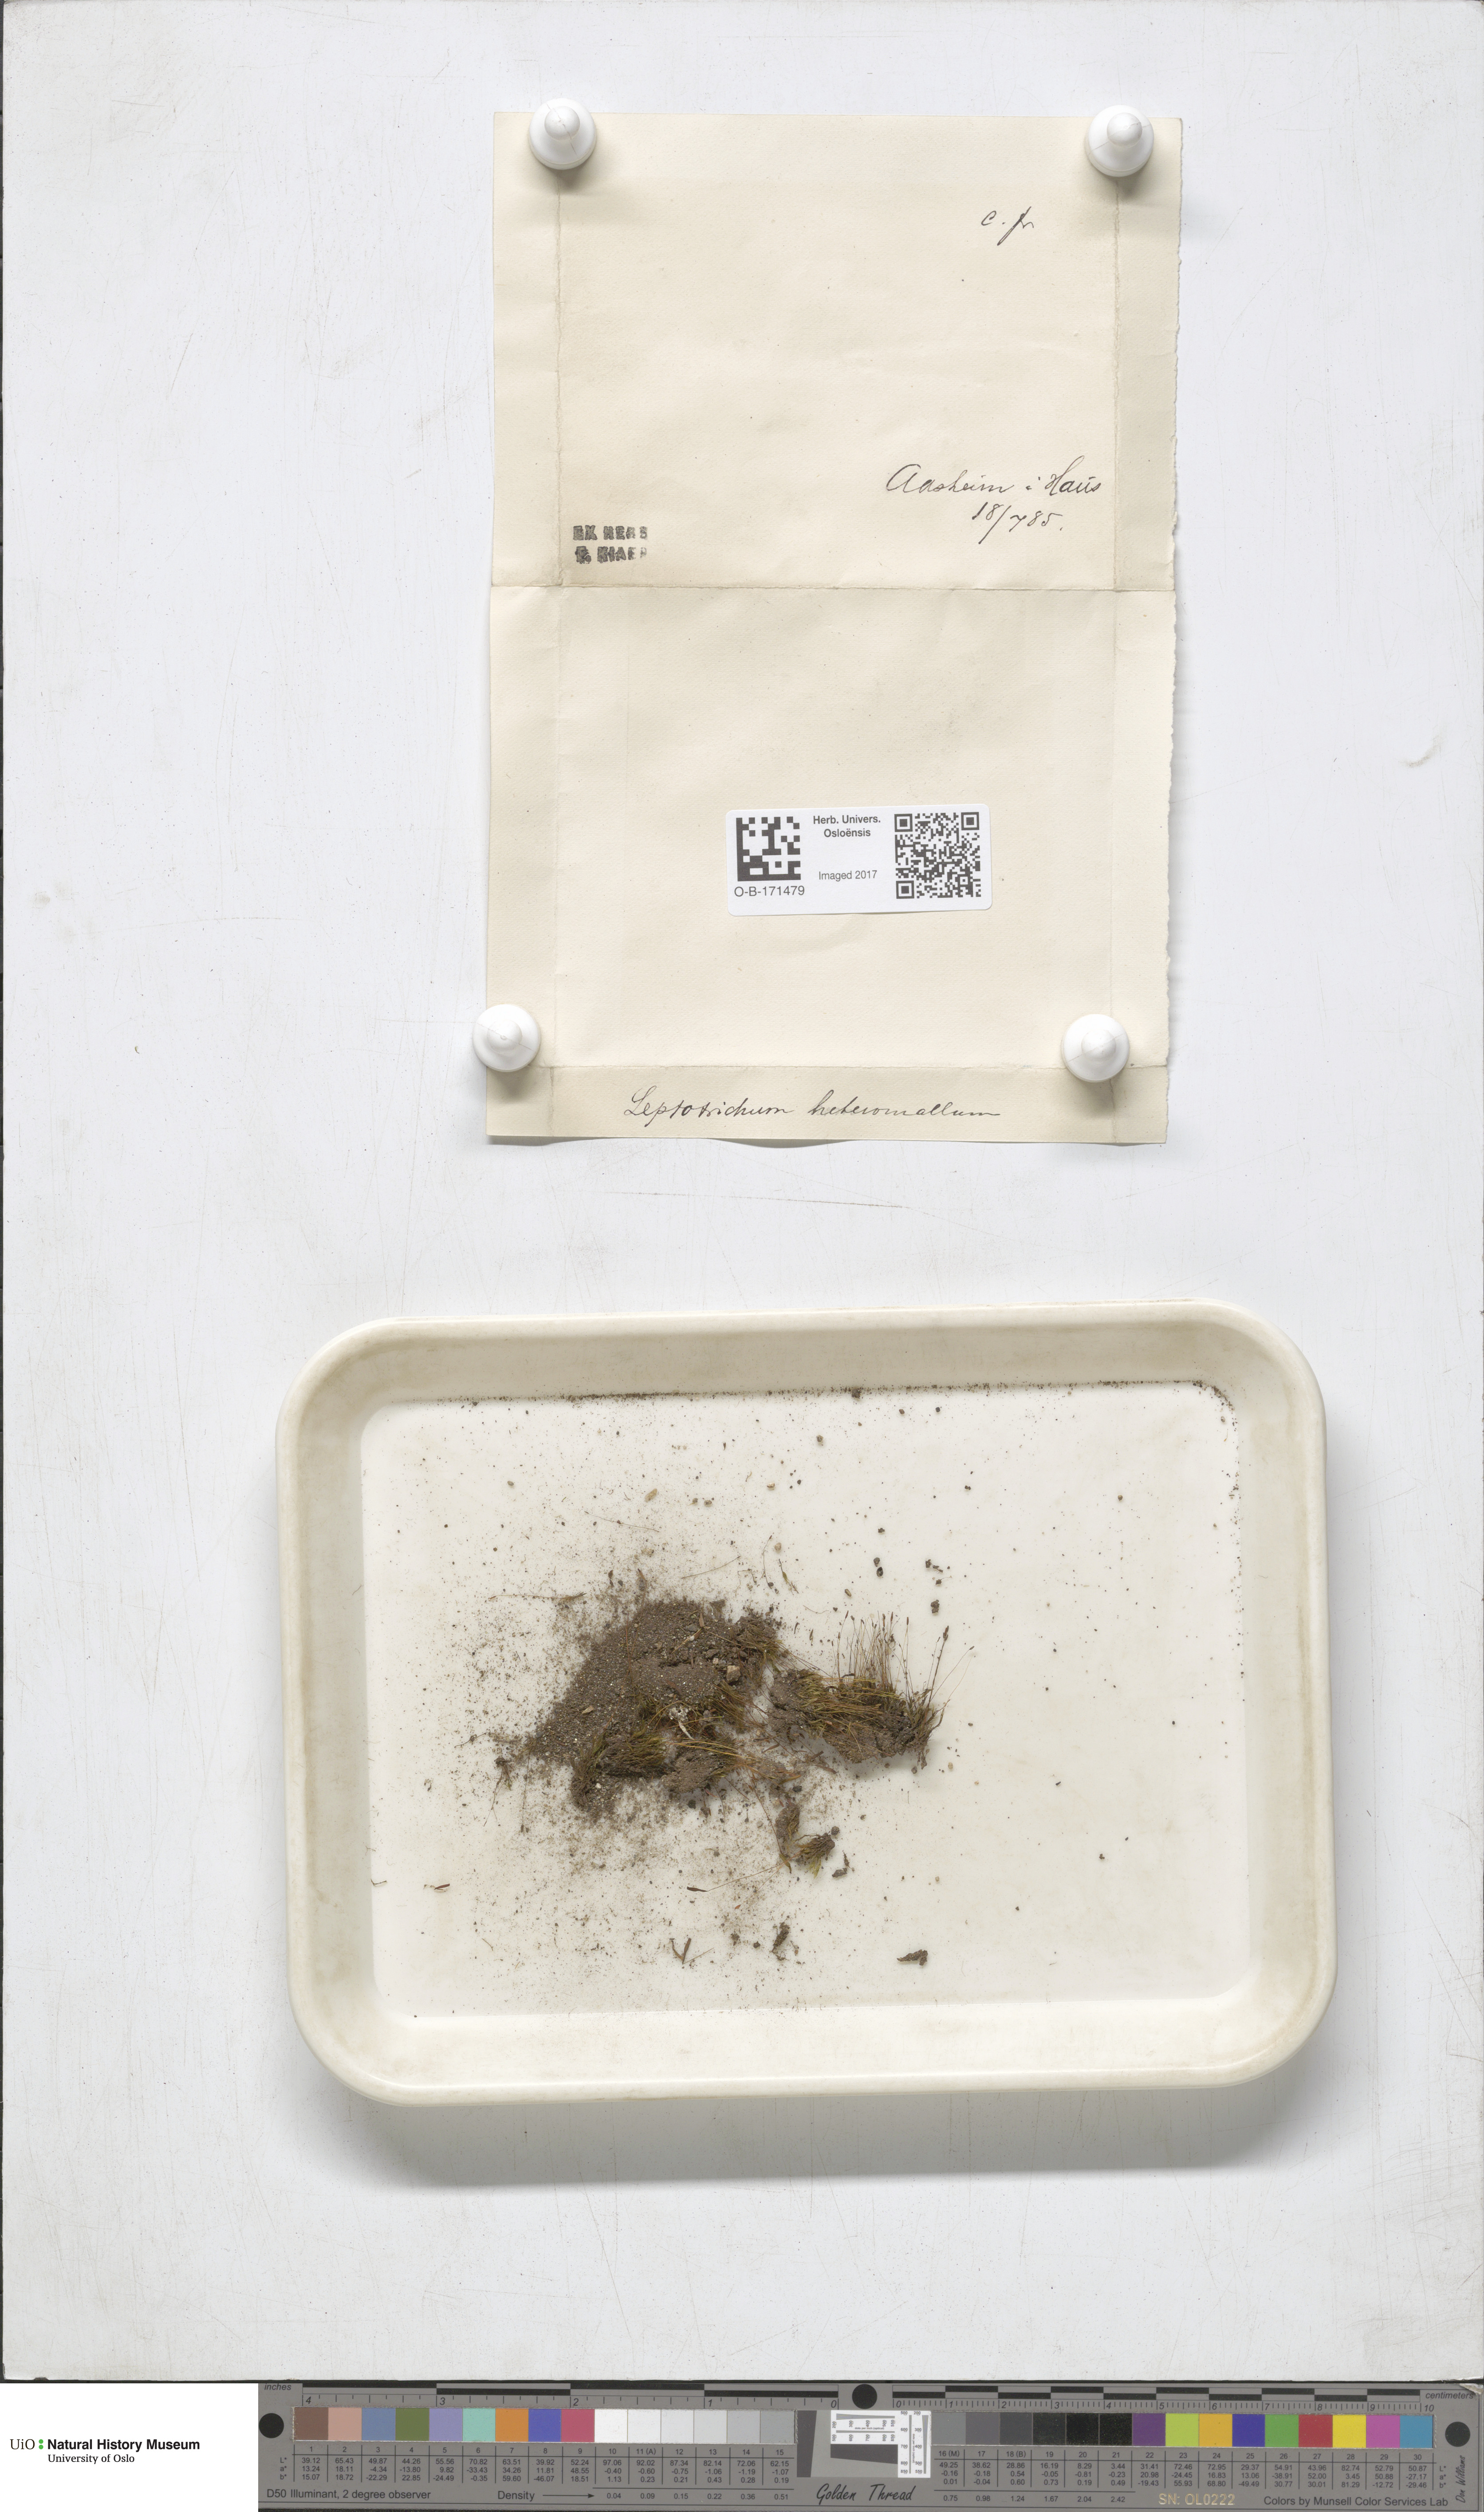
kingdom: Plantae
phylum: Bryophyta
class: Bryopsida
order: Dicranales
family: Ditrichaceae
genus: Ditrichum
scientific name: Ditrichum heteromallum
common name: Curve-leaved ditrichum
